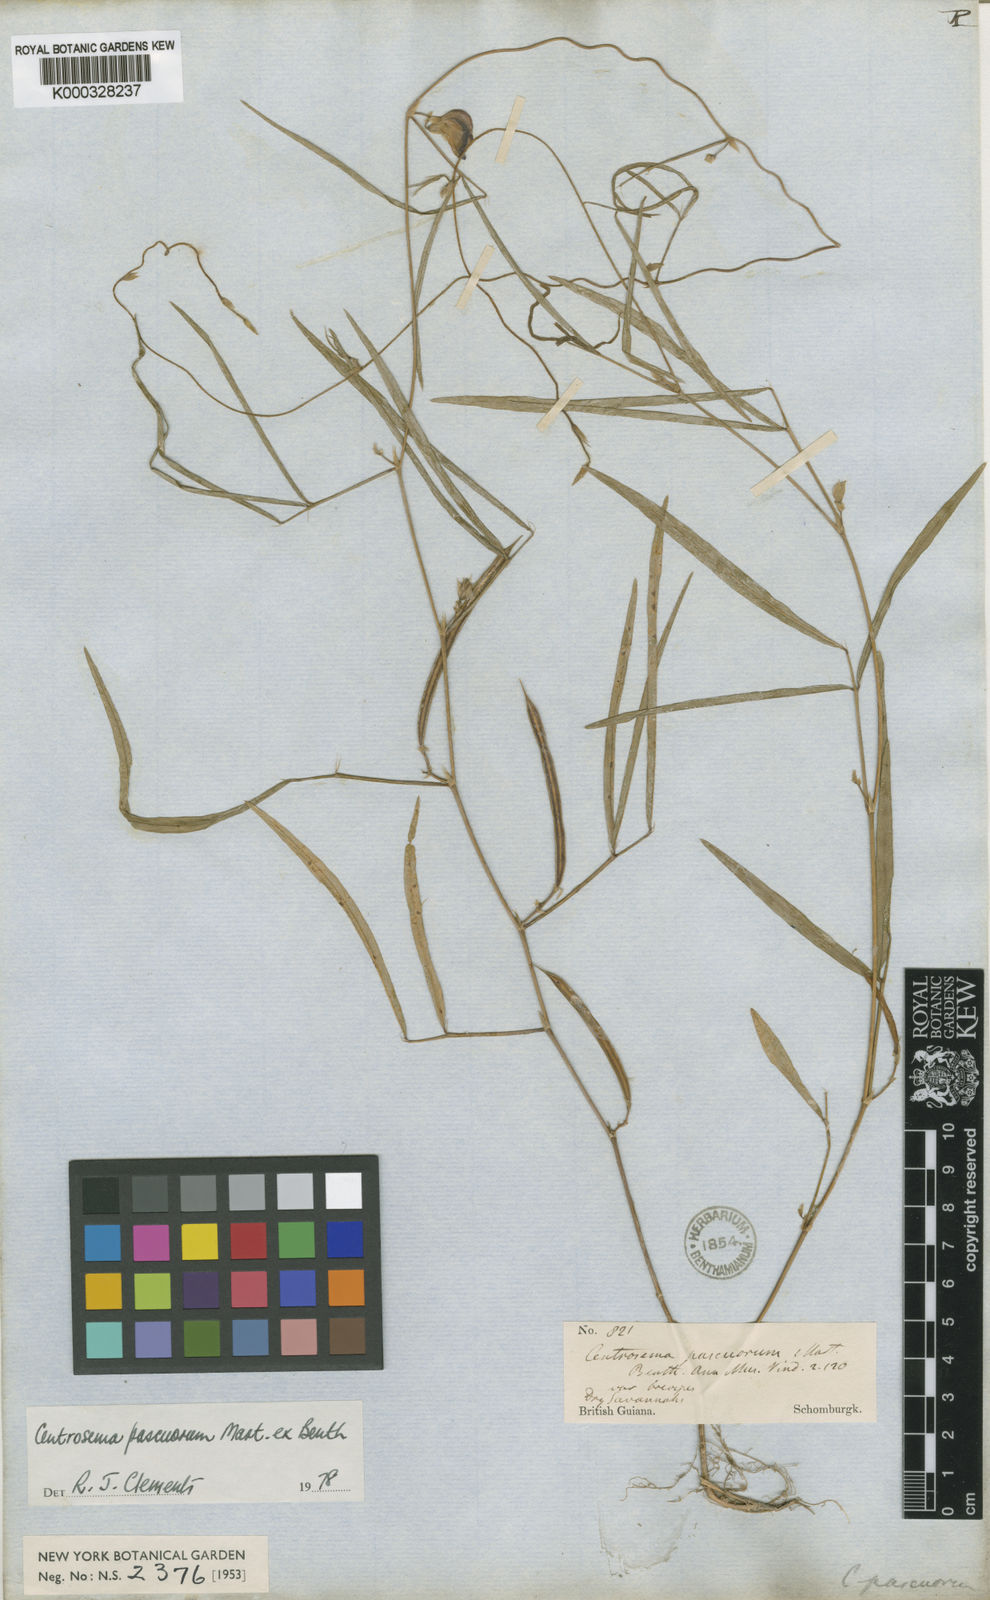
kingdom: Plantae
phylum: Tracheophyta
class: Magnoliopsida
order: Fabales
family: Fabaceae
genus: Centrosema
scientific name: Centrosema pascuorum
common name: Centurion
